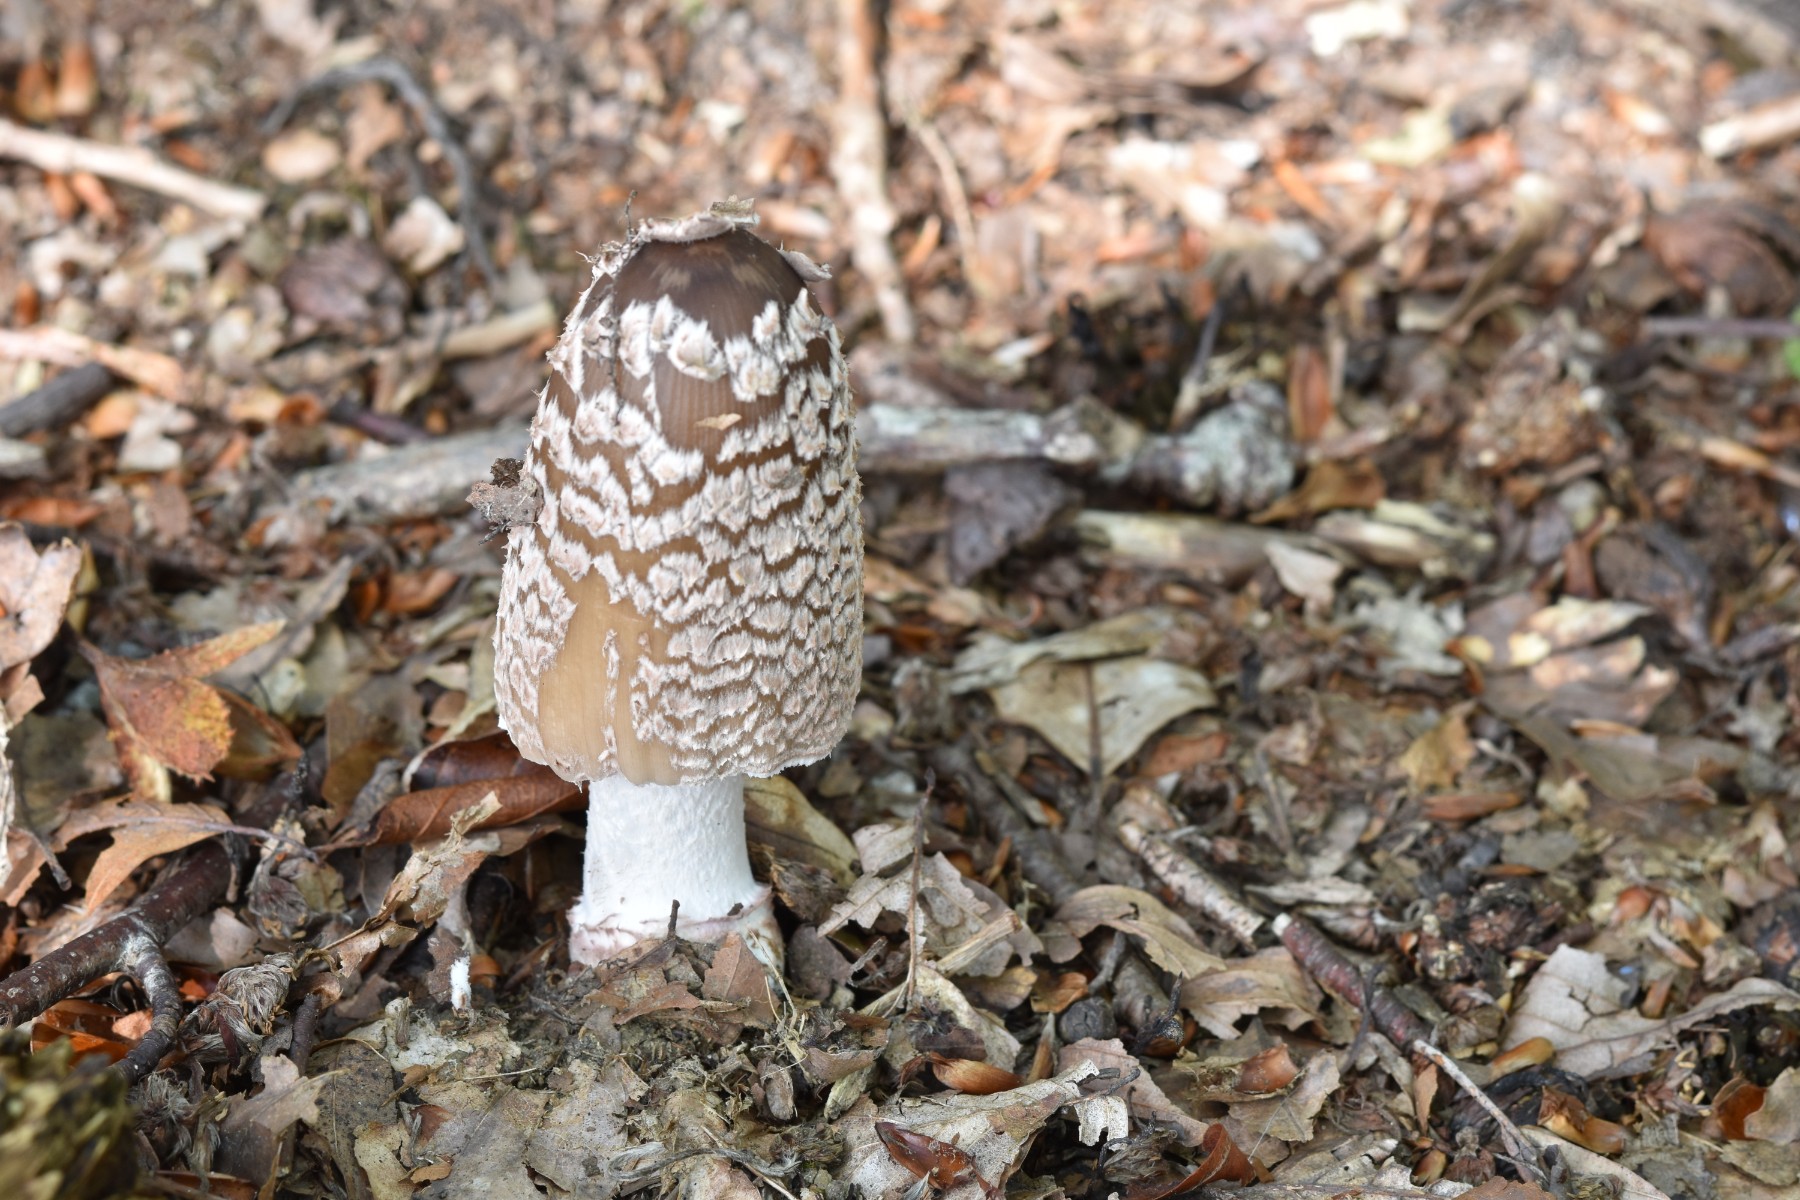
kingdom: Fungi
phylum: Basidiomycota
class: Agaricomycetes
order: Agaricales
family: Psathyrellaceae
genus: Coprinopsis
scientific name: Coprinopsis picacea
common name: skade-blækhat
